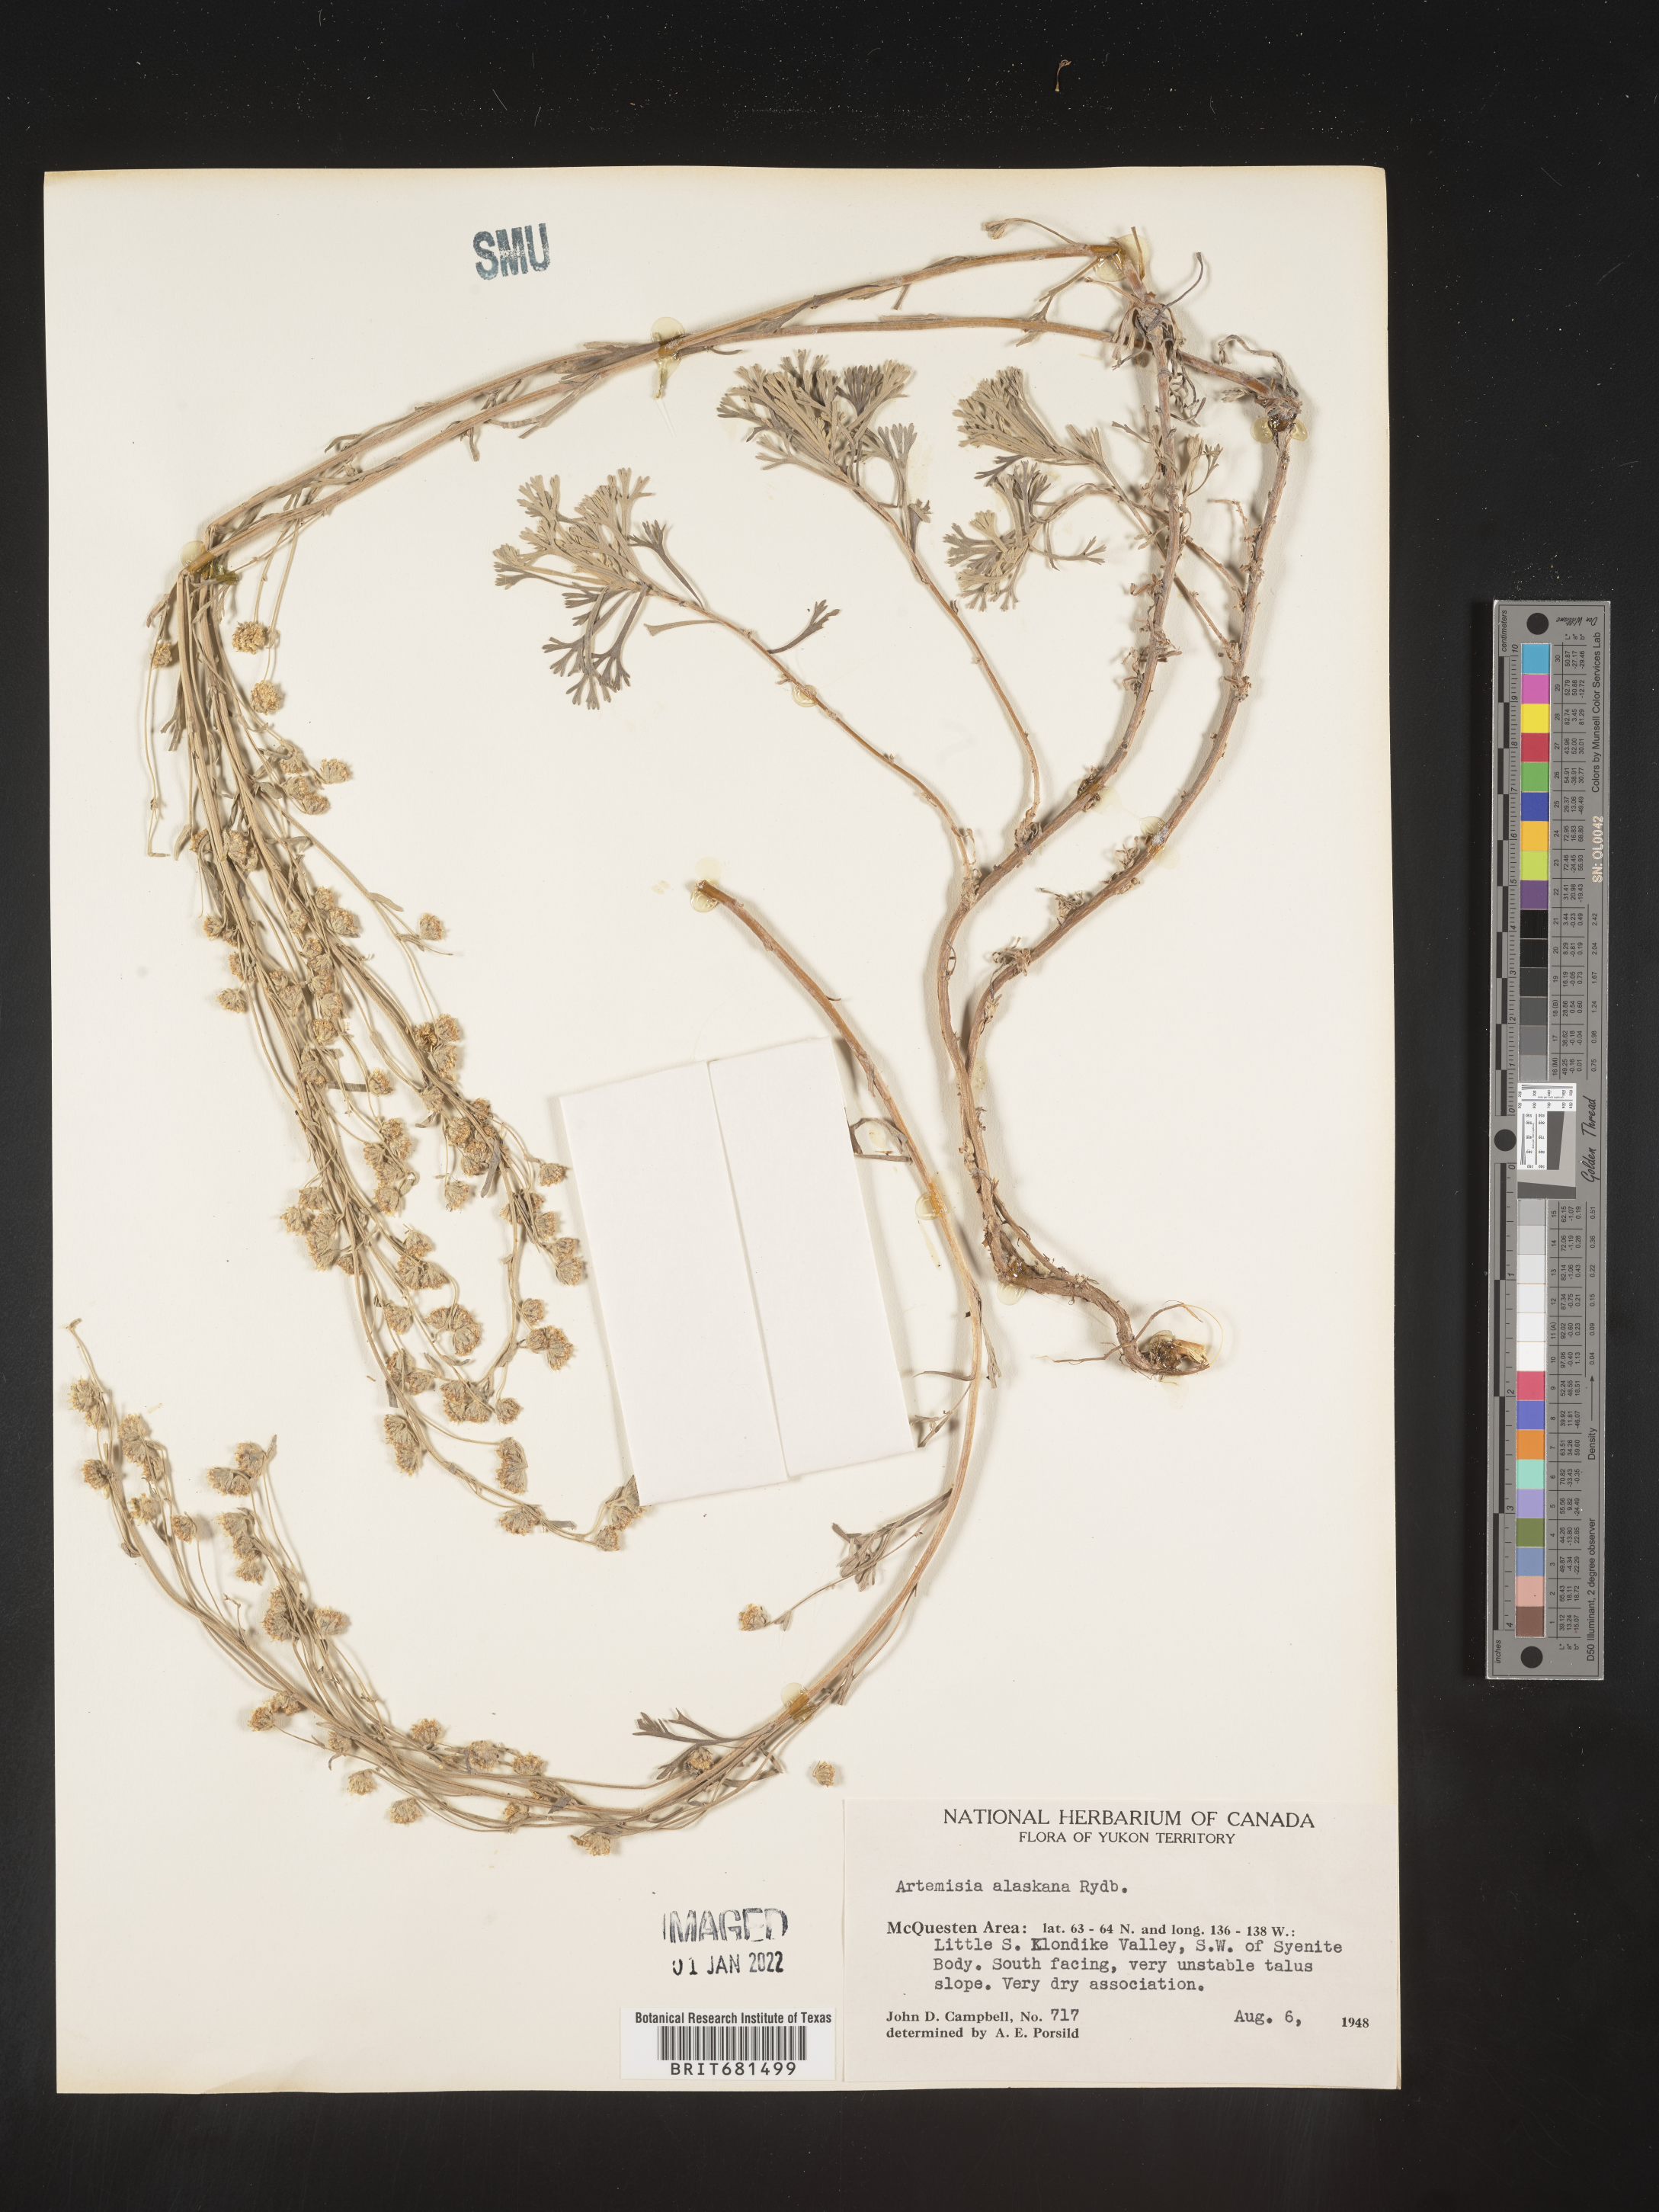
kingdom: Plantae
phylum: Tracheophyta
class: Magnoliopsida
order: Asterales
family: Asteraceae
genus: Artemisia
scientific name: Artemisia kruhsiana
